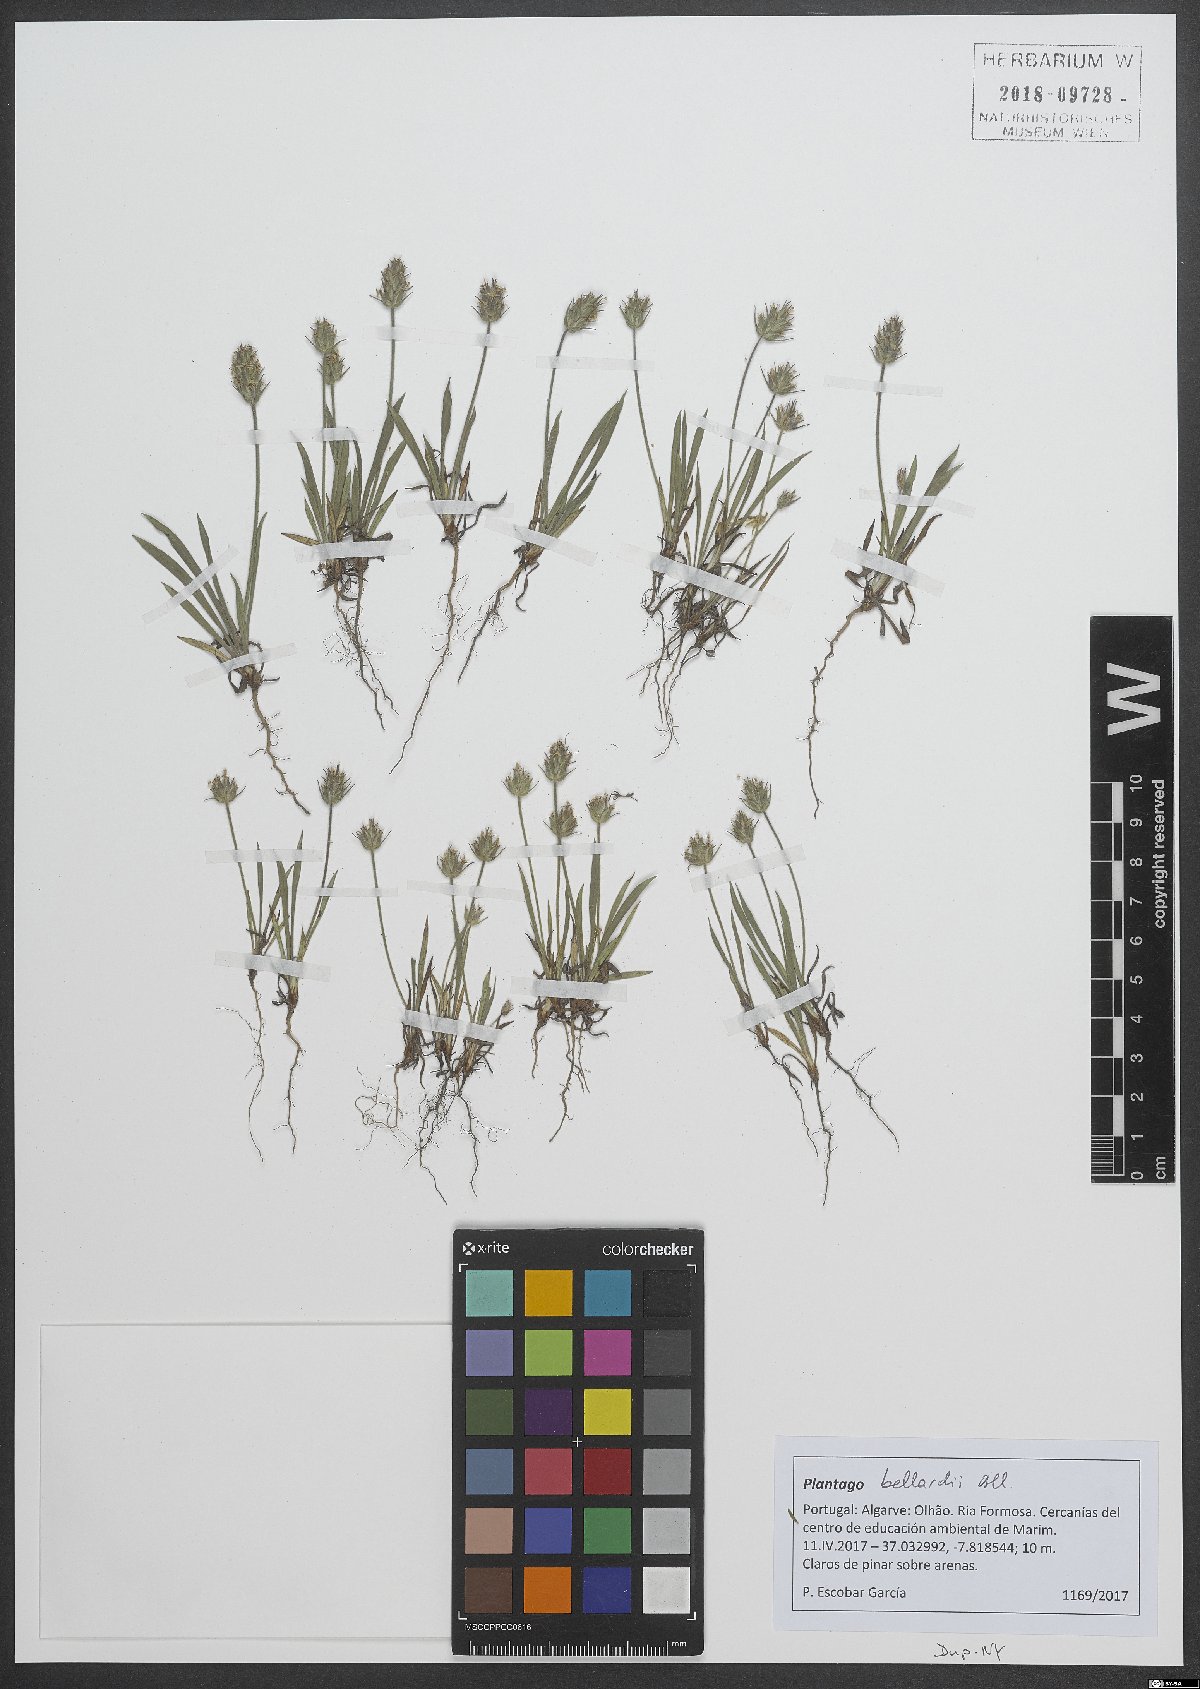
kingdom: Plantae
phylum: Tracheophyta
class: Magnoliopsida
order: Lamiales
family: Plantaginaceae
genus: Plantago
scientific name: Plantago bellardii
